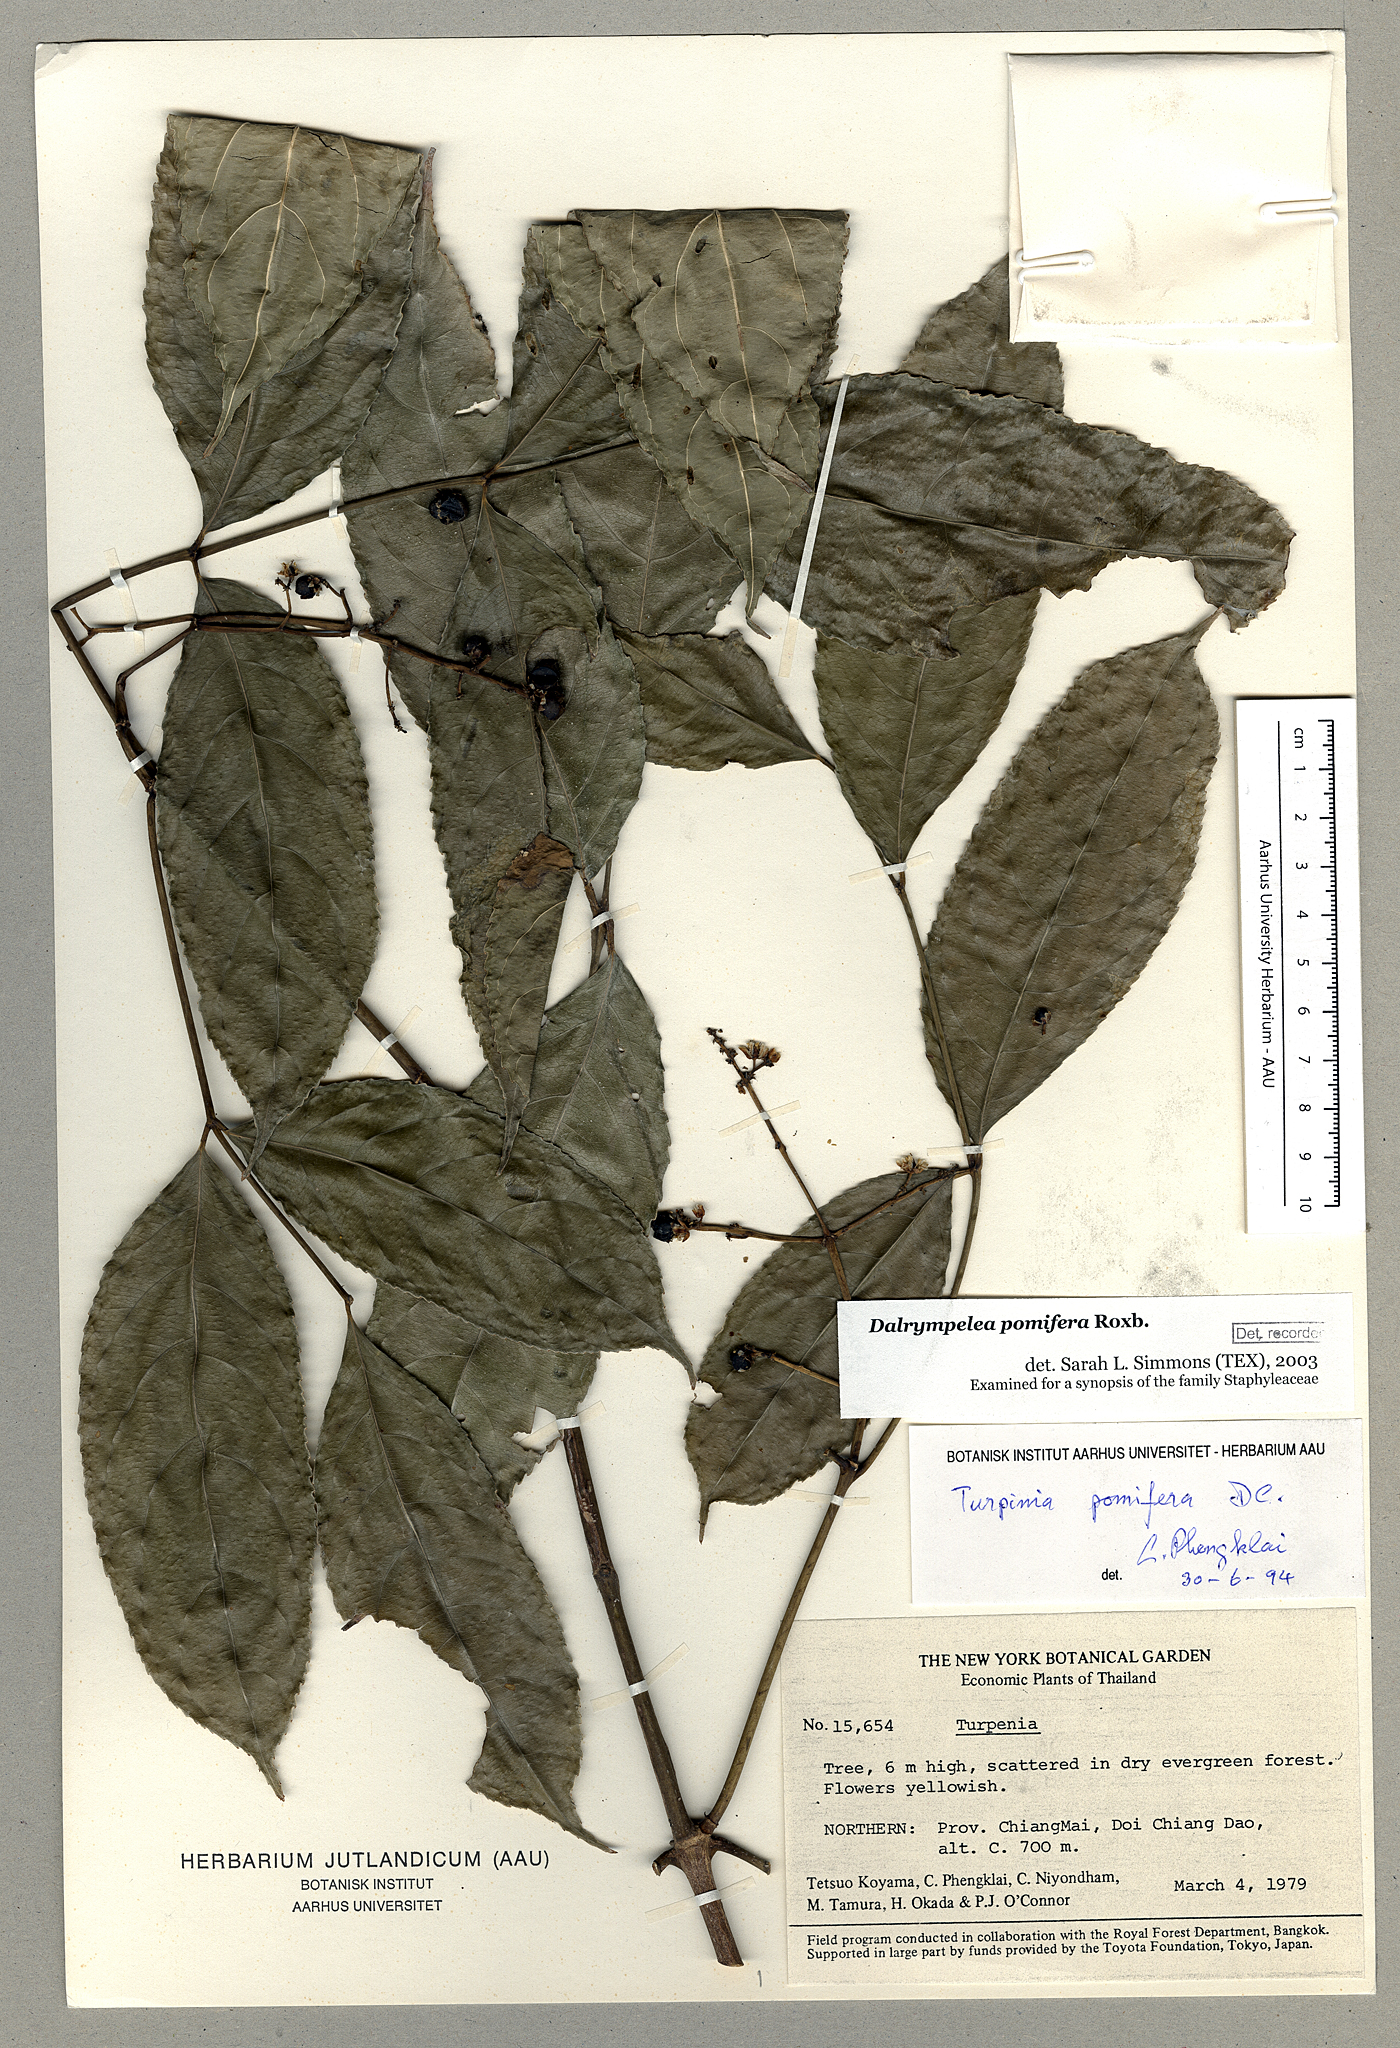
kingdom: Plantae
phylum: Tracheophyta
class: Magnoliopsida
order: Crossosomatales
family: Staphyleaceae
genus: Dalrympelea
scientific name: Dalrympelea pomifera
